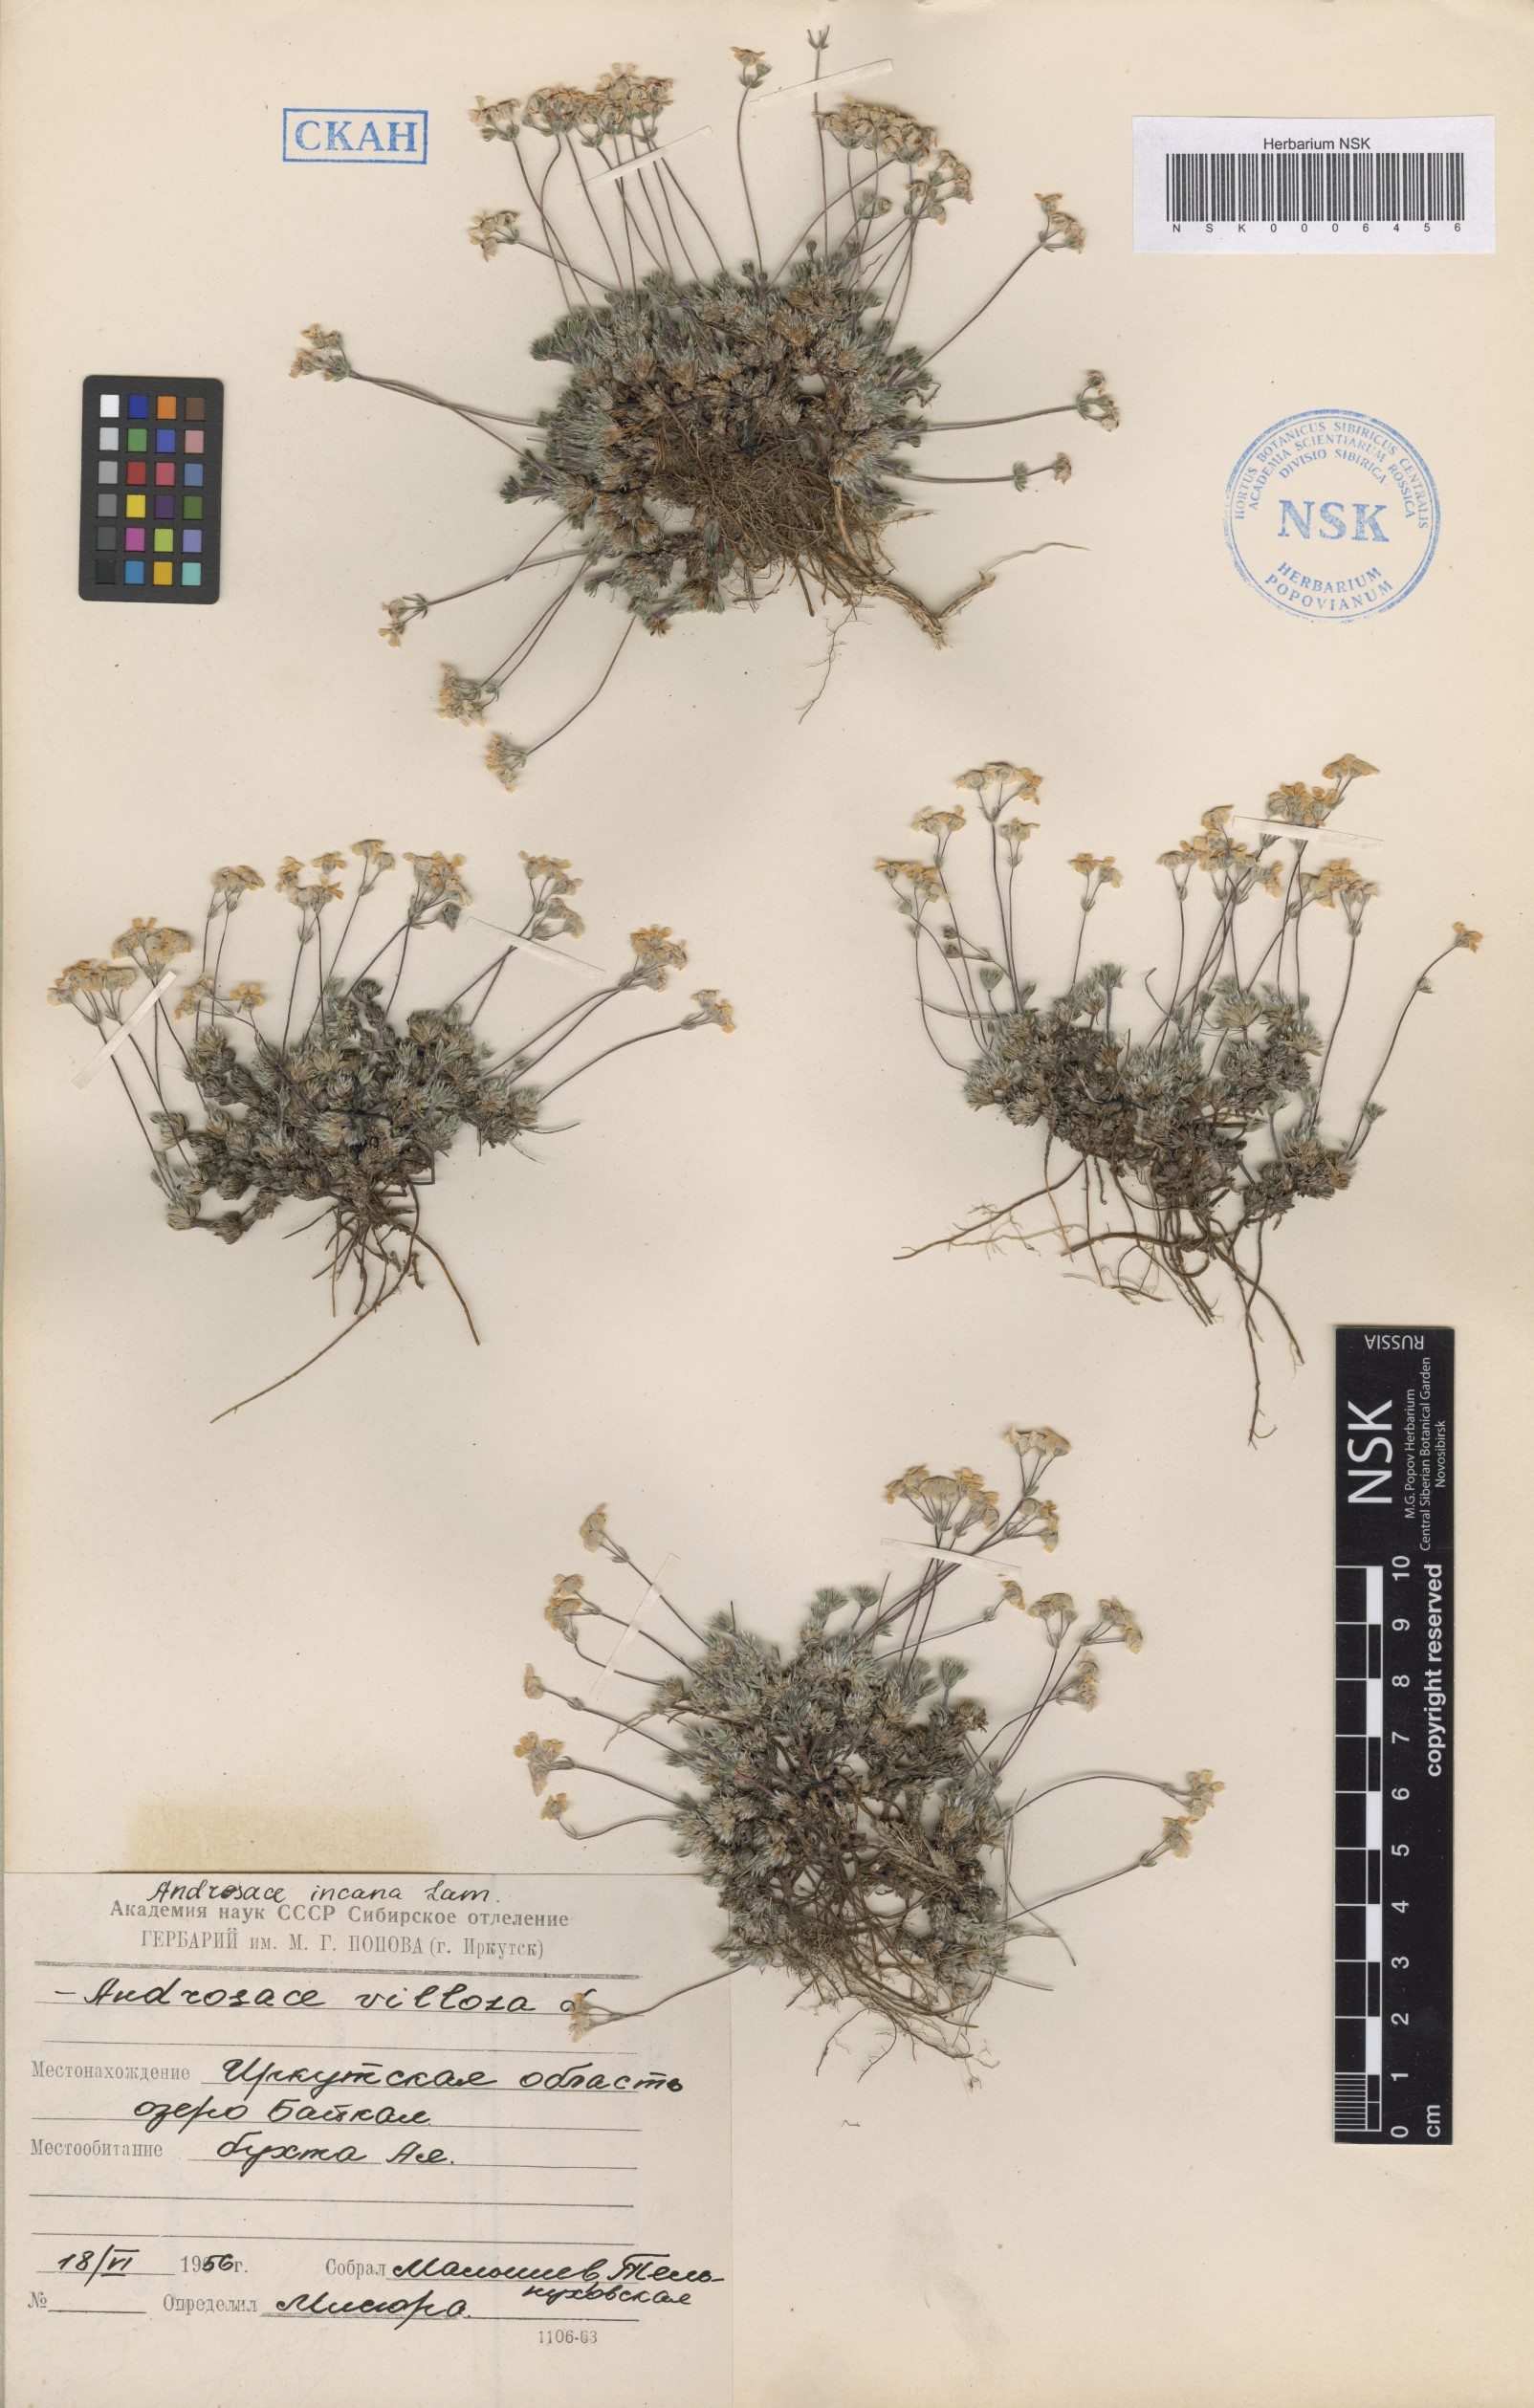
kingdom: Plantae
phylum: Tracheophyta
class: Magnoliopsida
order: Ericales
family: Primulaceae
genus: Androsace
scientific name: Androsace incana
